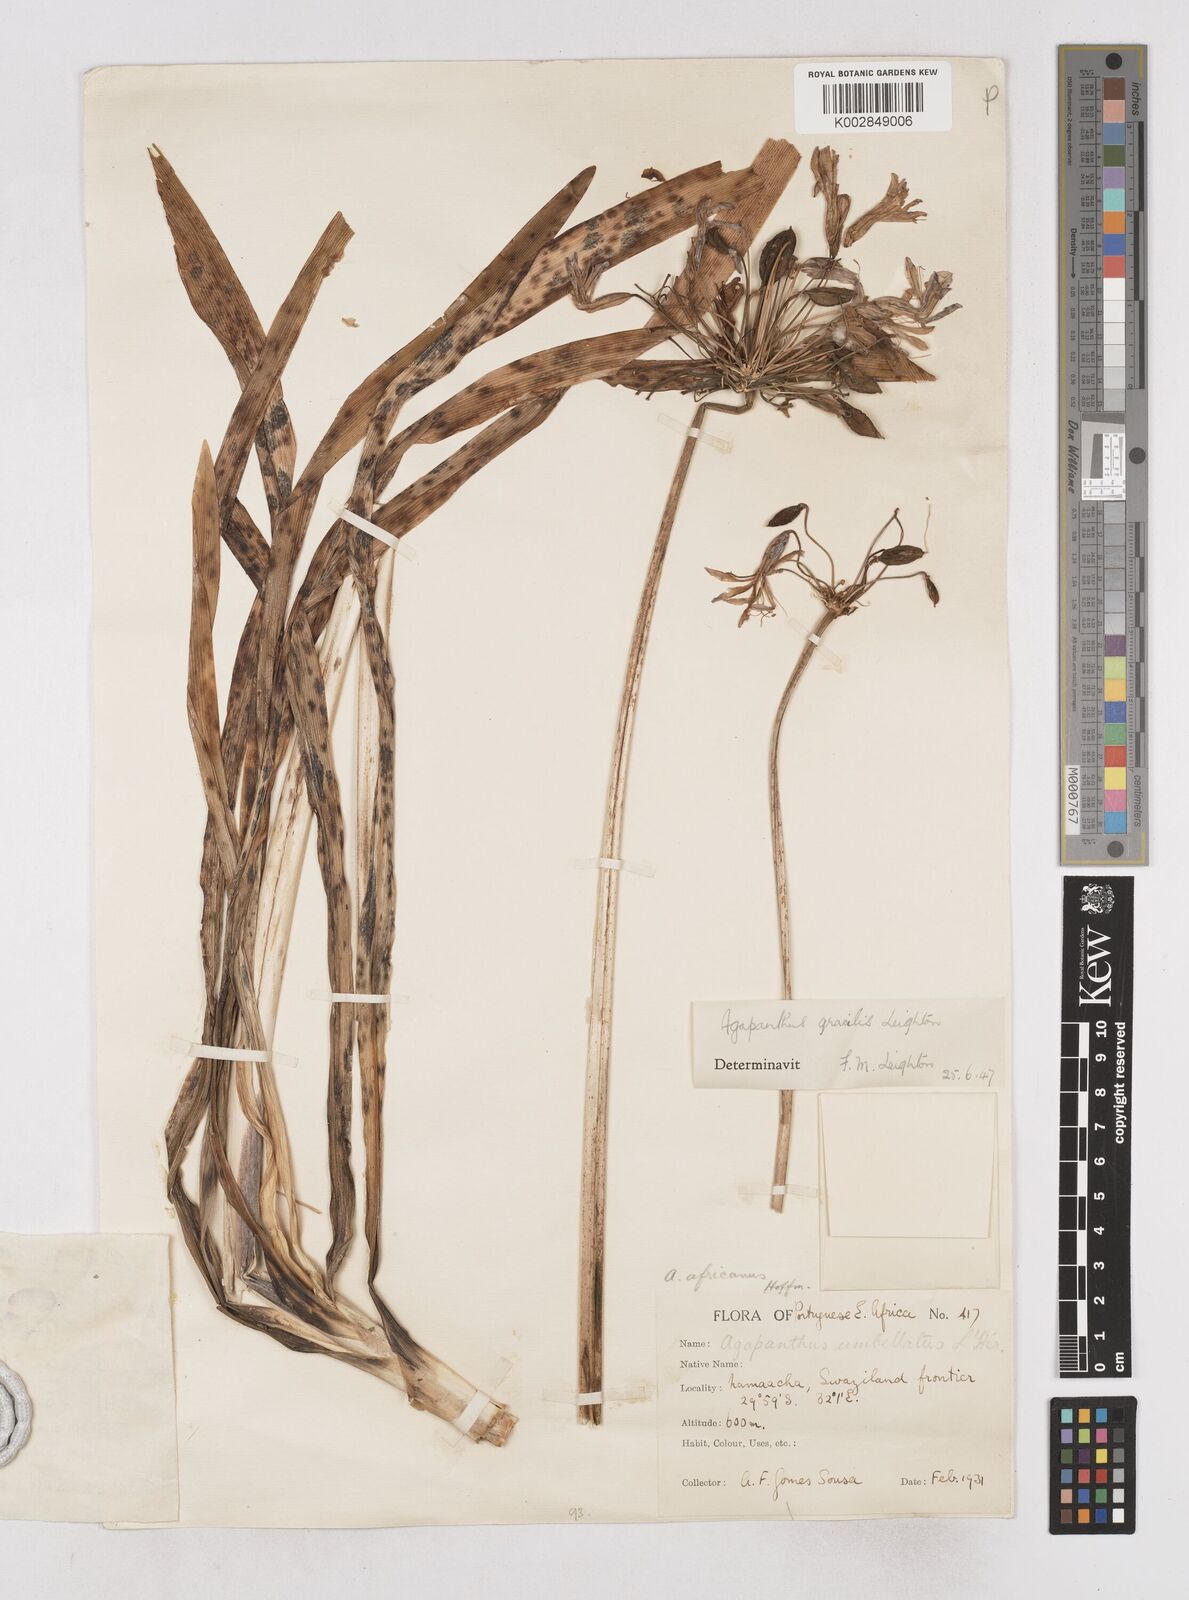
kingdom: Plantae
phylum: Tracheophyta
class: Liliopsida
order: Liliales
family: Liliaceae
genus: Agapanthus
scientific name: Agapanthus
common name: Agapanthus
